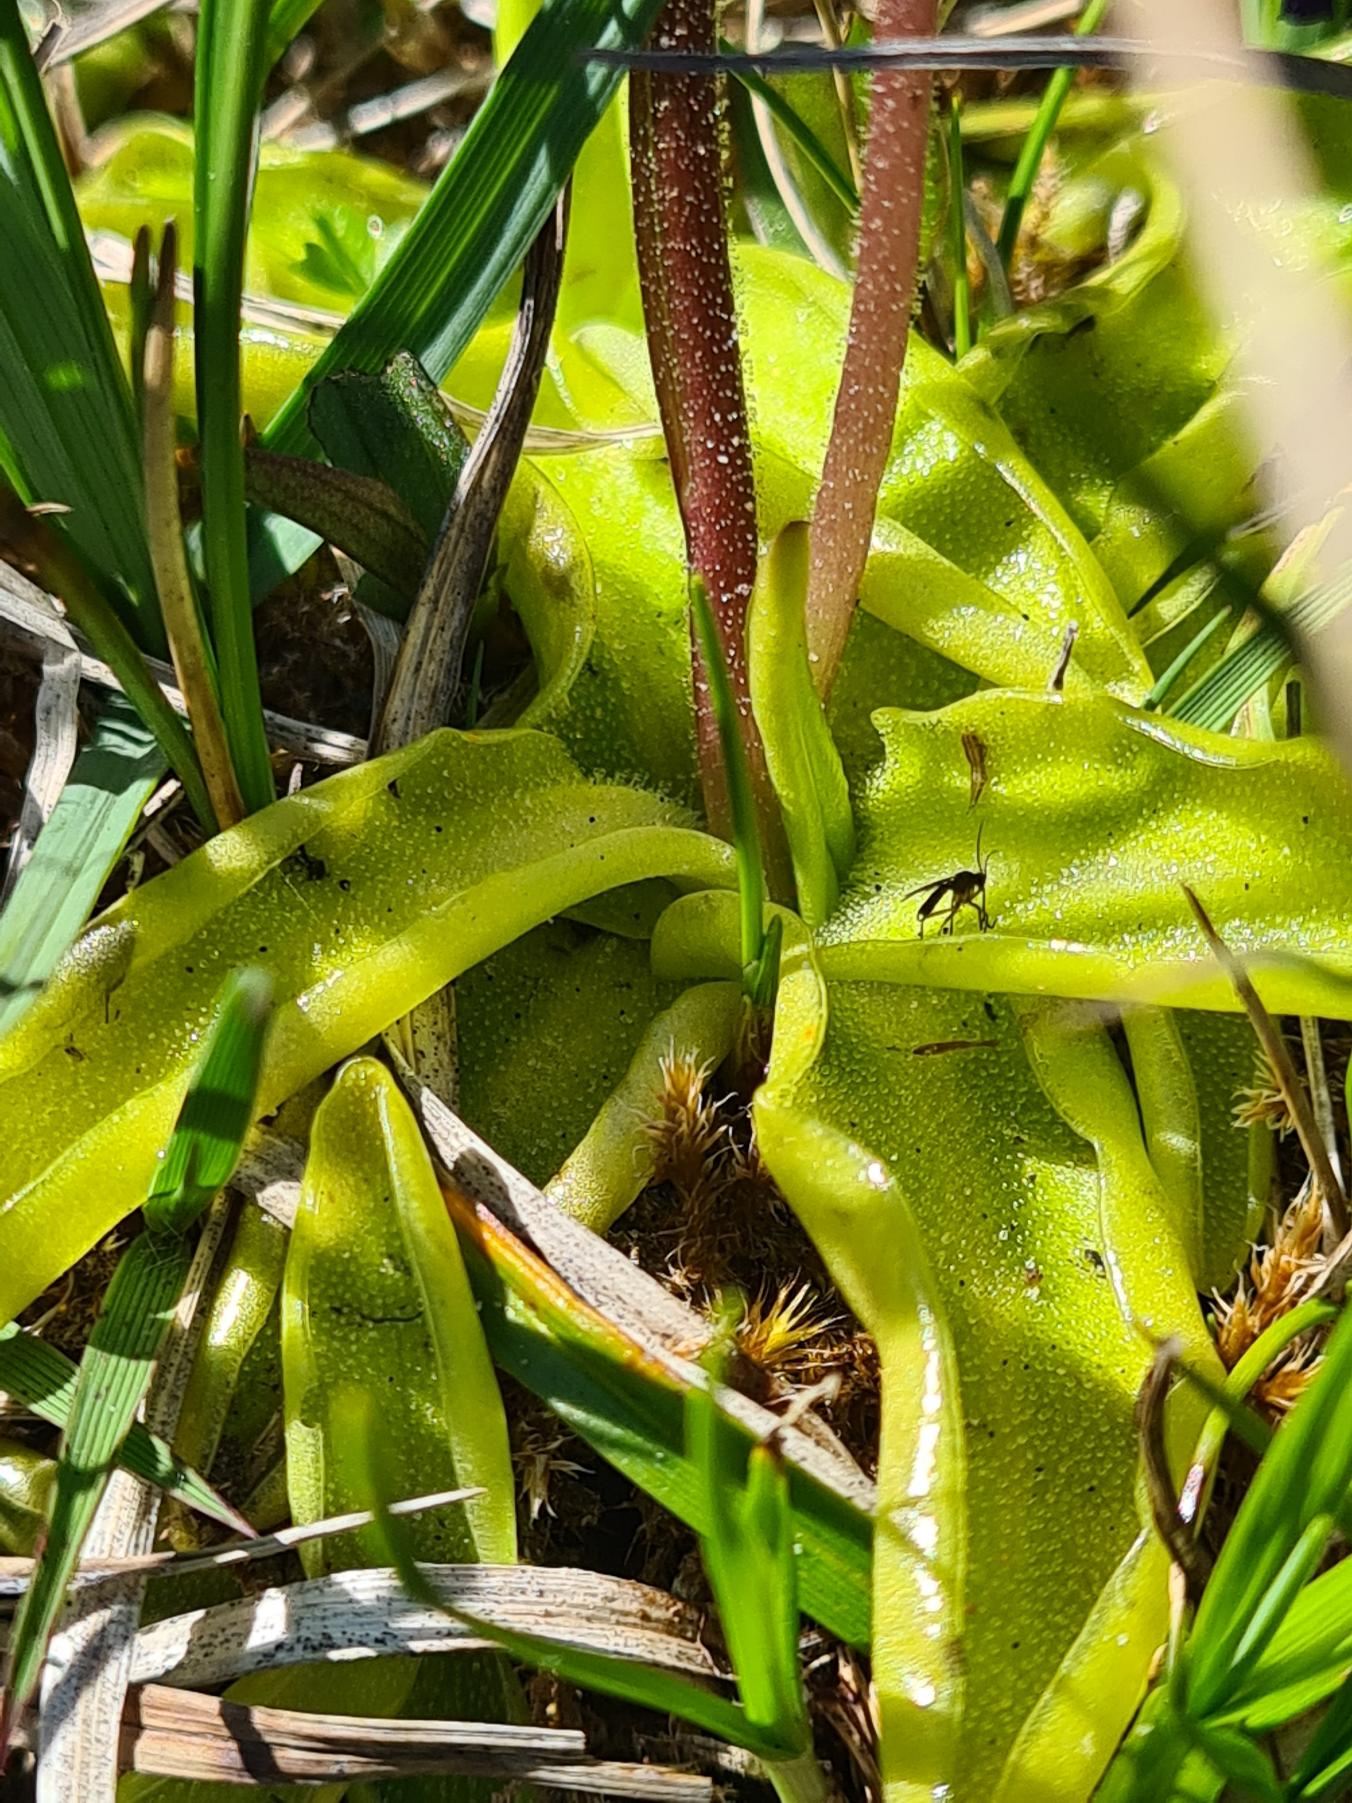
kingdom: Plantae
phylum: Tracheophyta
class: Magnoliopsida
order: Lamiales
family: Lentibulariaceae
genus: Pinguicula
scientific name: Pinguicula vulgaris
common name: Vibefedt
